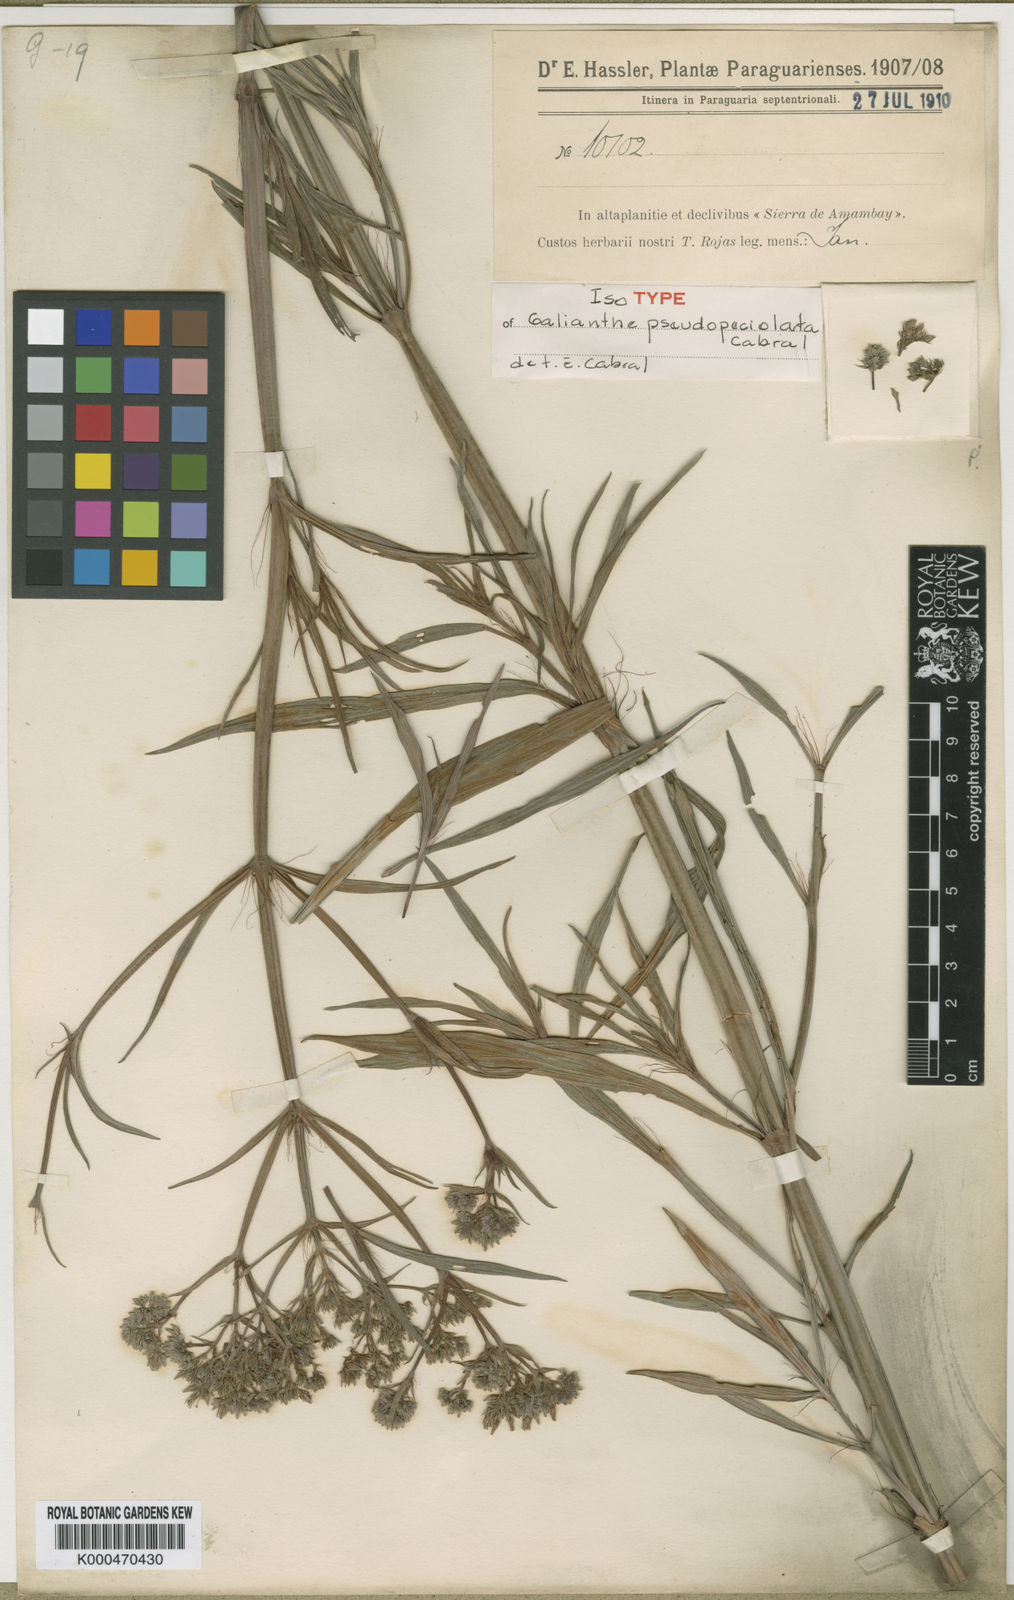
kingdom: Plantae
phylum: Tracheophyta
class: Magnoliopsida
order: Gentianales
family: Rubiaceae
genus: Galianthe
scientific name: Galianthe
